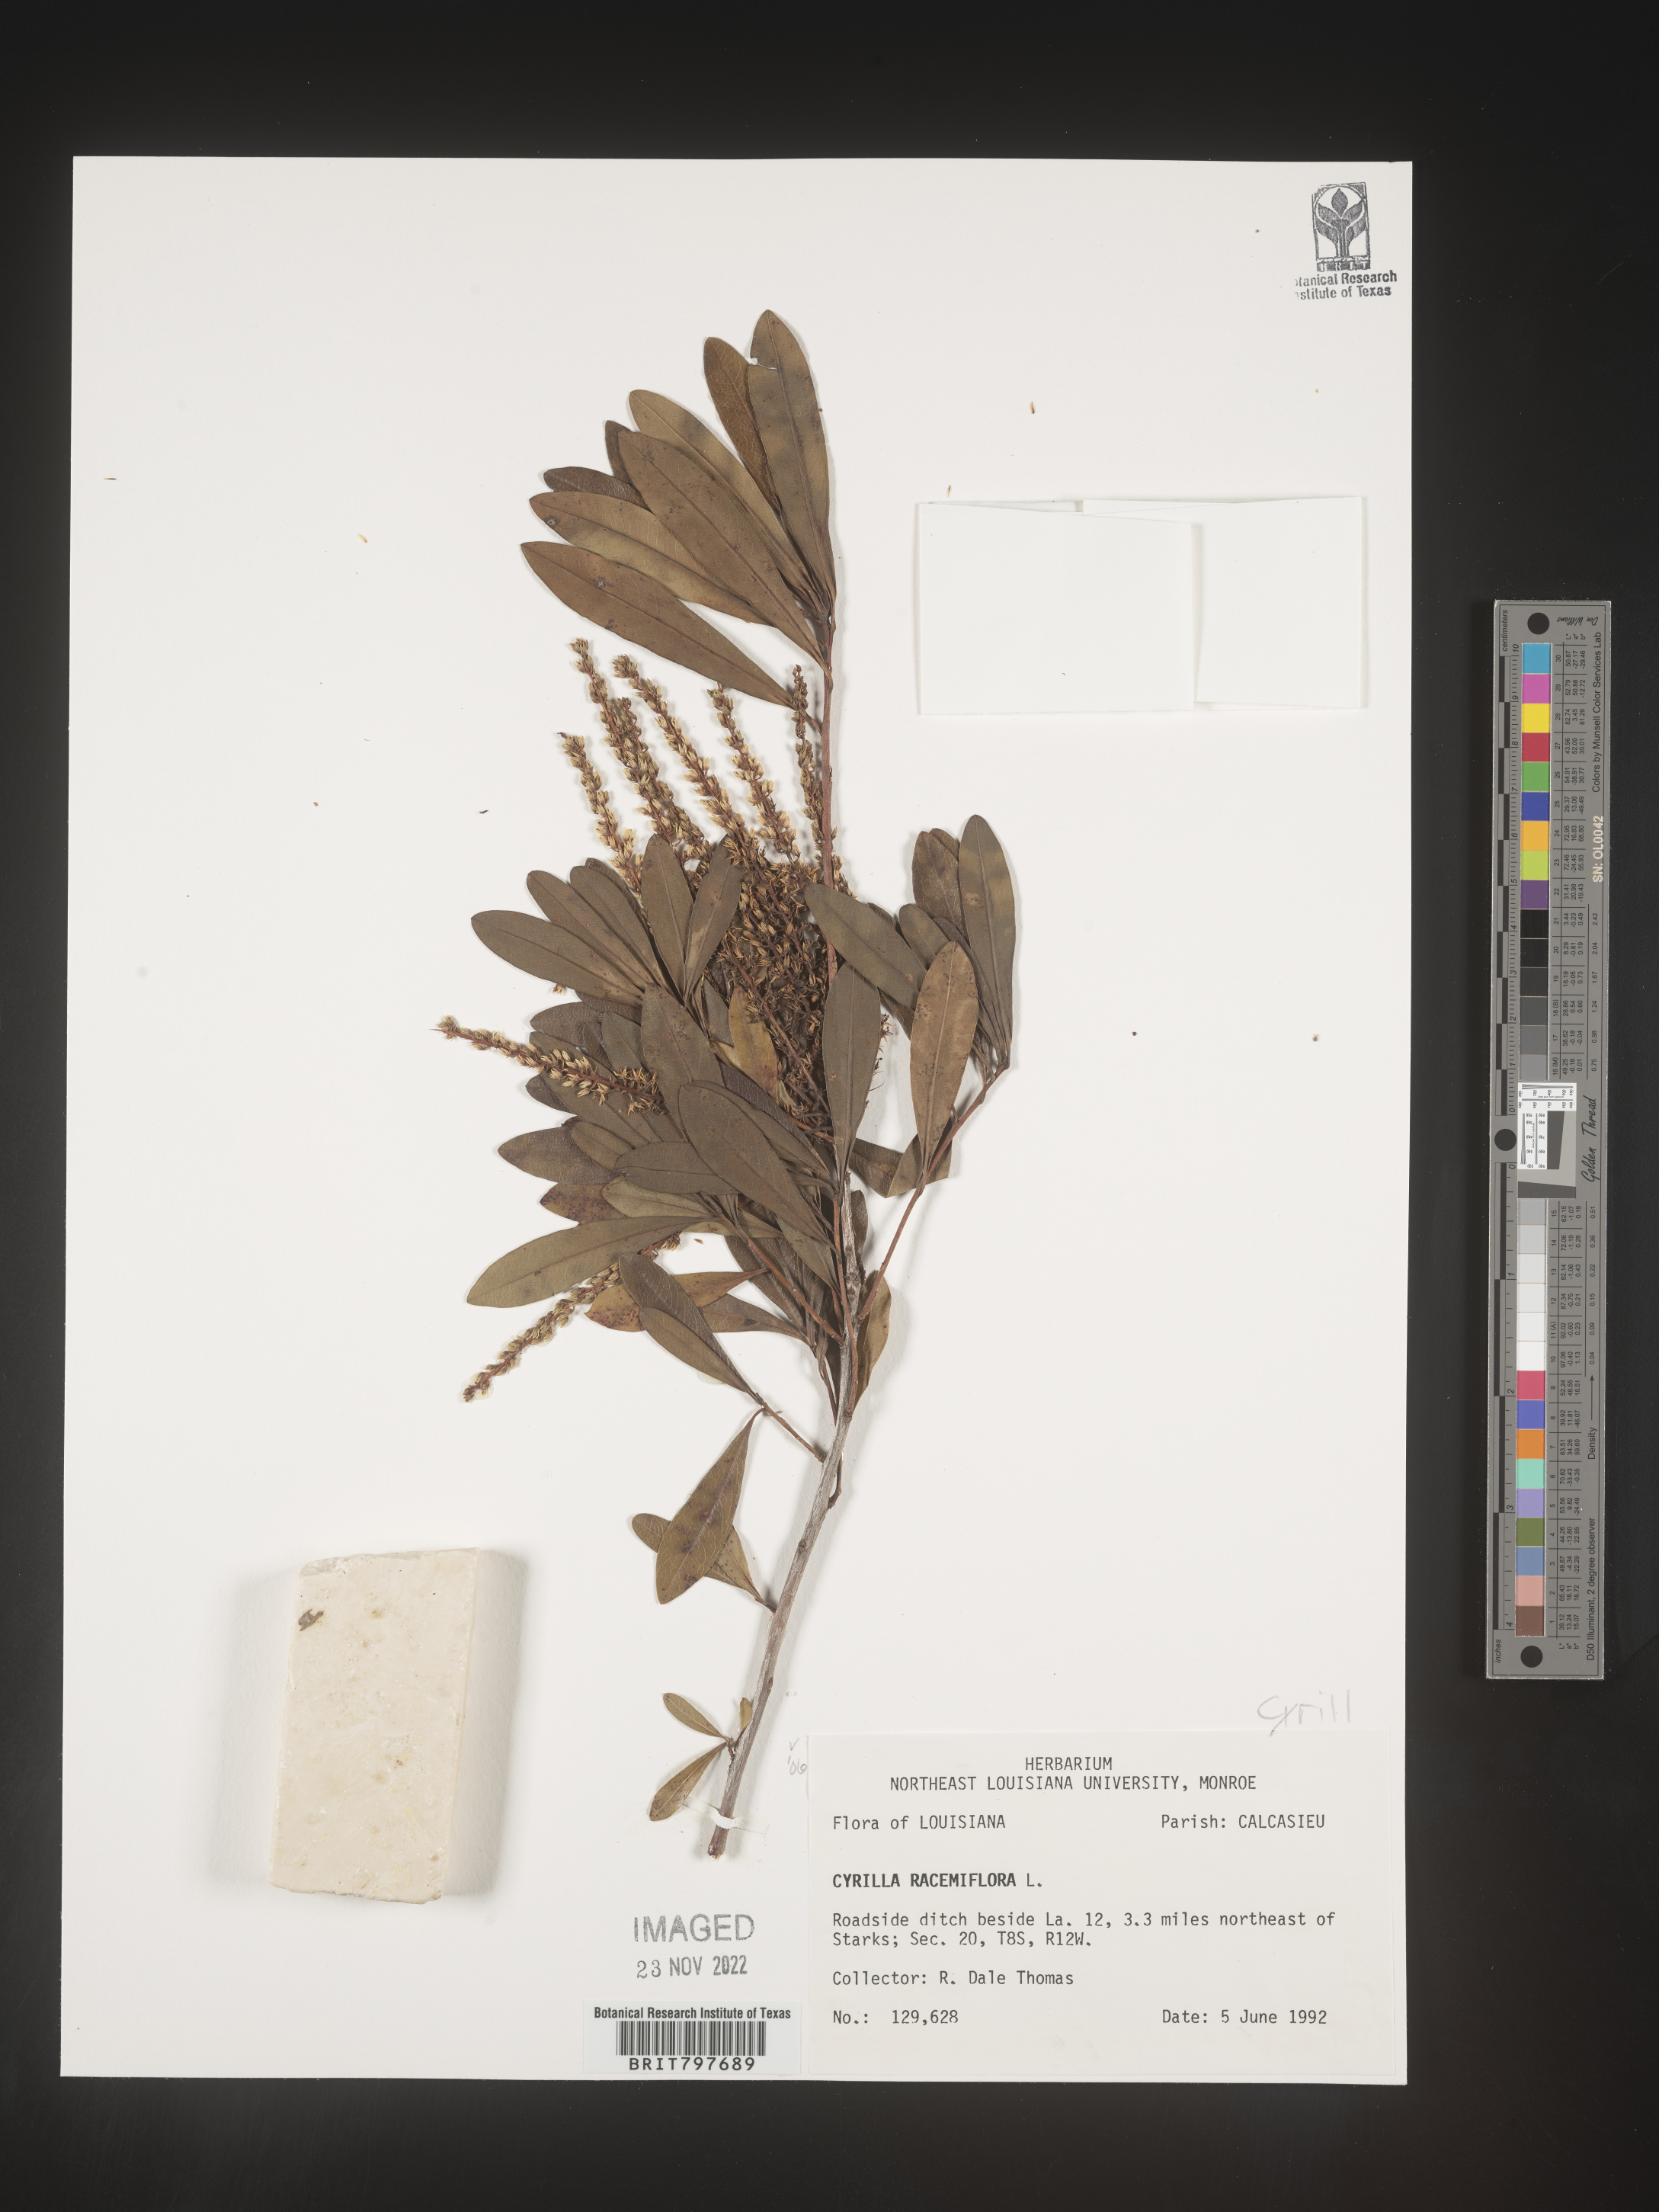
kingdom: Plantae
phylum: Tracheophyta
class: Magnoliopsida
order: Ericales
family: Cyrillaceae
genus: Cyrilla
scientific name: Cyrilla racemiflora
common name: Black titi
